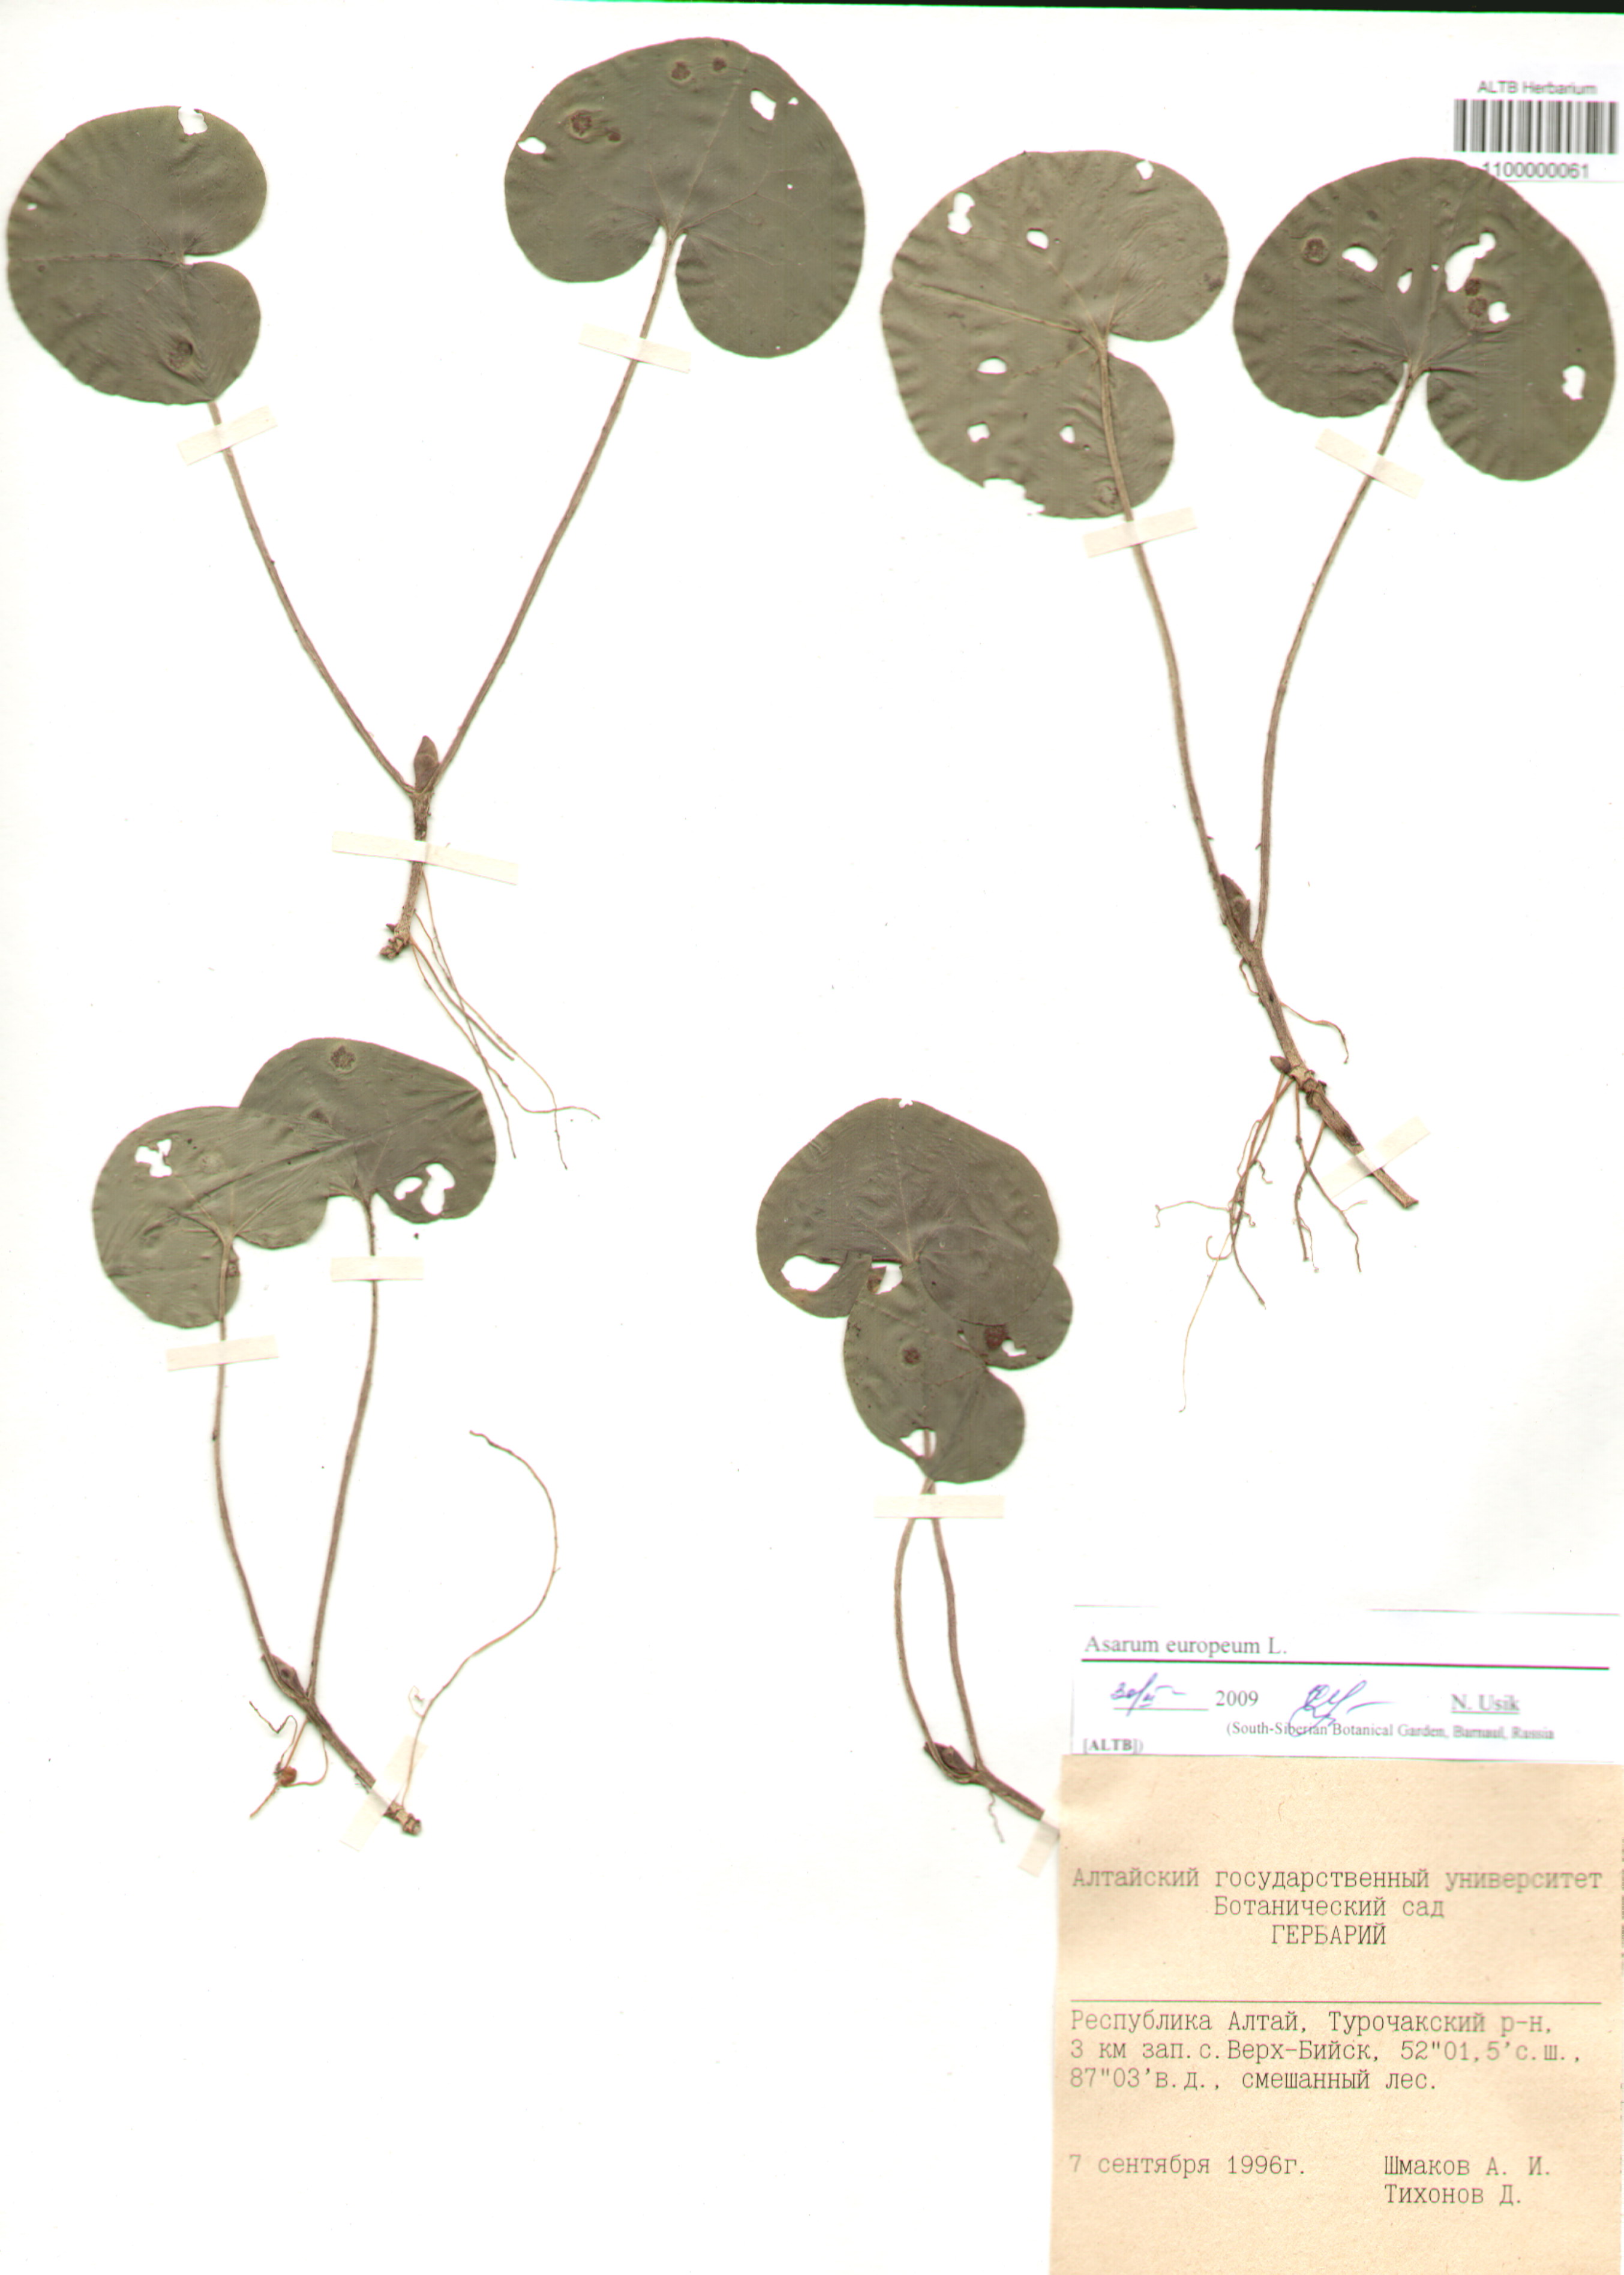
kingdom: Plantae
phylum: Tracheophyta
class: Magnoliopsida
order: Piperales
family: Aristolochiaceae
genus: Asarum
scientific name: Asarum europaeum
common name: Asarabacca
